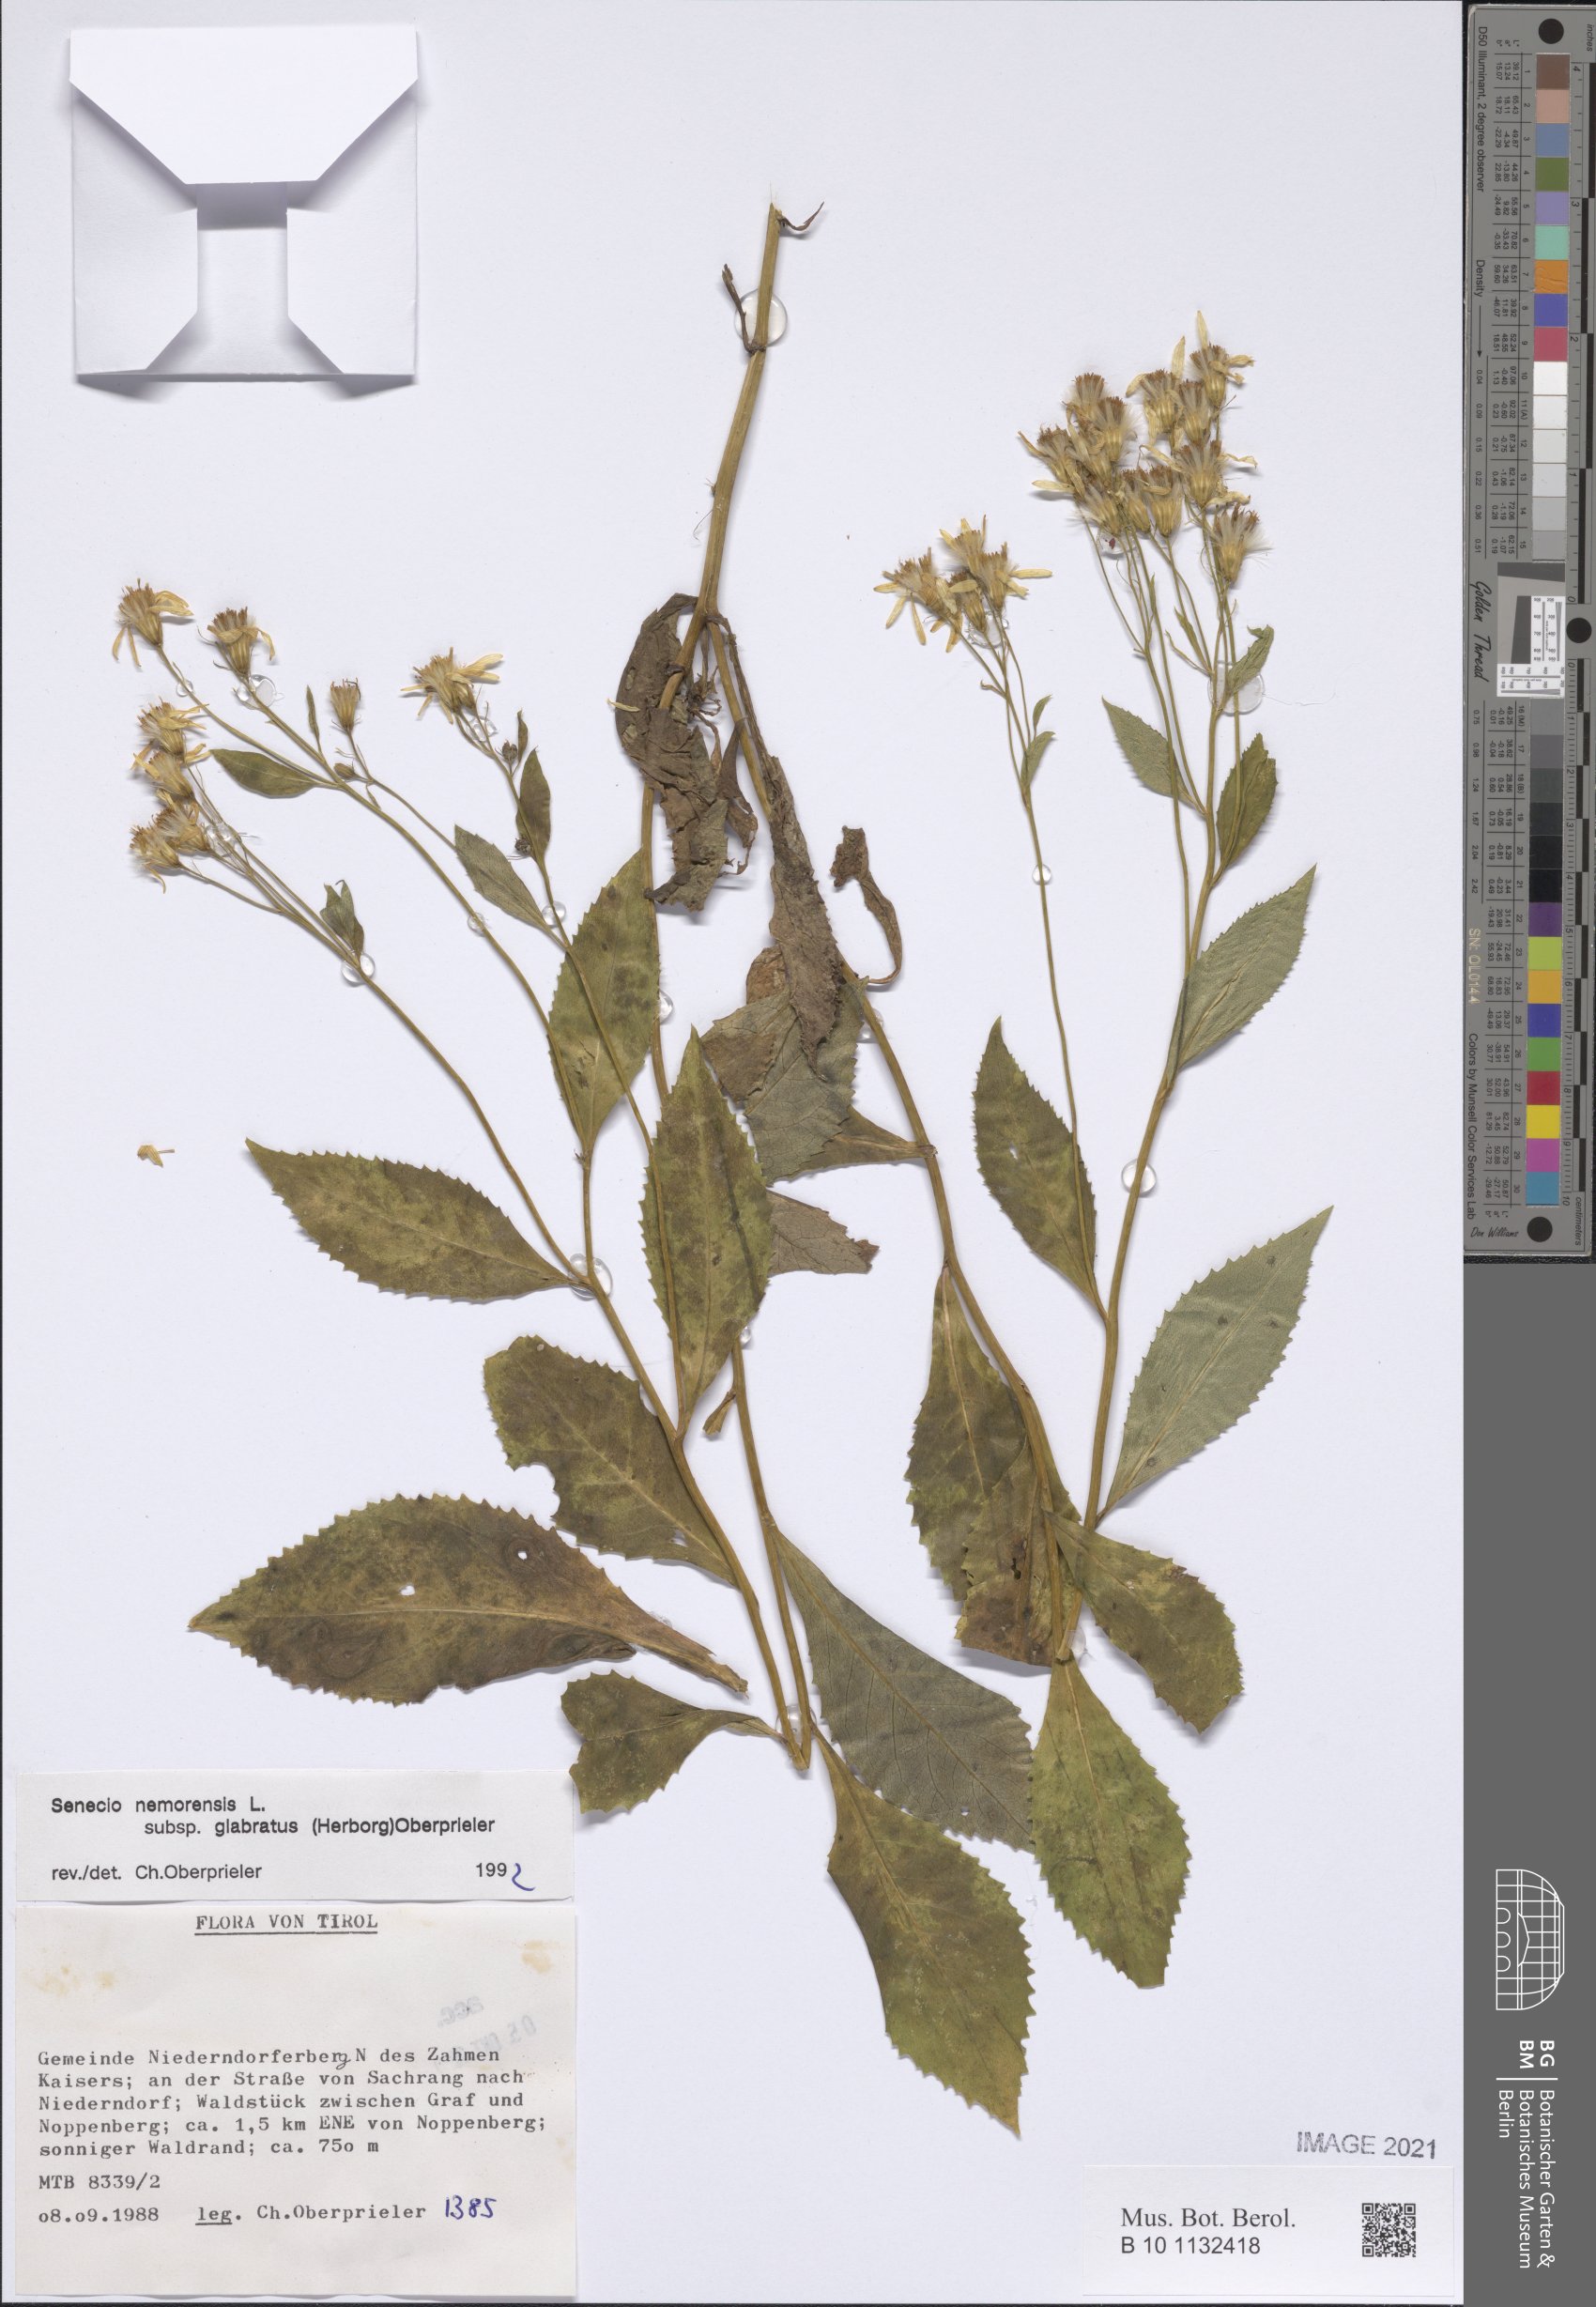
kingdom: Plantae
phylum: Tracheophyta
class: Magnoliopsida
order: Asterales
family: Asteraceae
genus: Senecio
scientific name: Senecio germanicus
